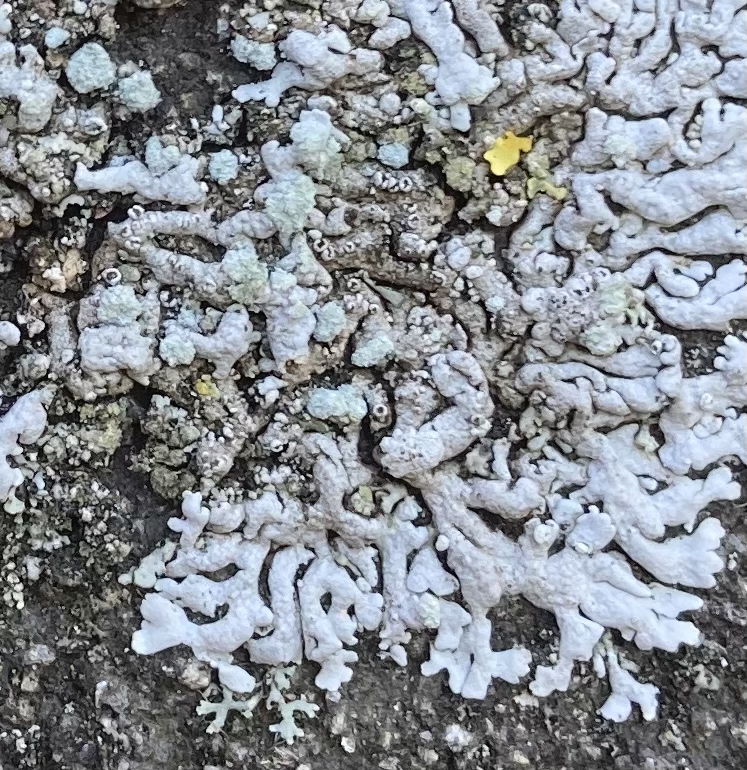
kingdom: Fungi
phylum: Ascomycota
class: Lecanoromycetes
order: Caliciales
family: Physciaceae
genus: Physcia
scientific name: Physcia caesia
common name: blågrå rosetlav
